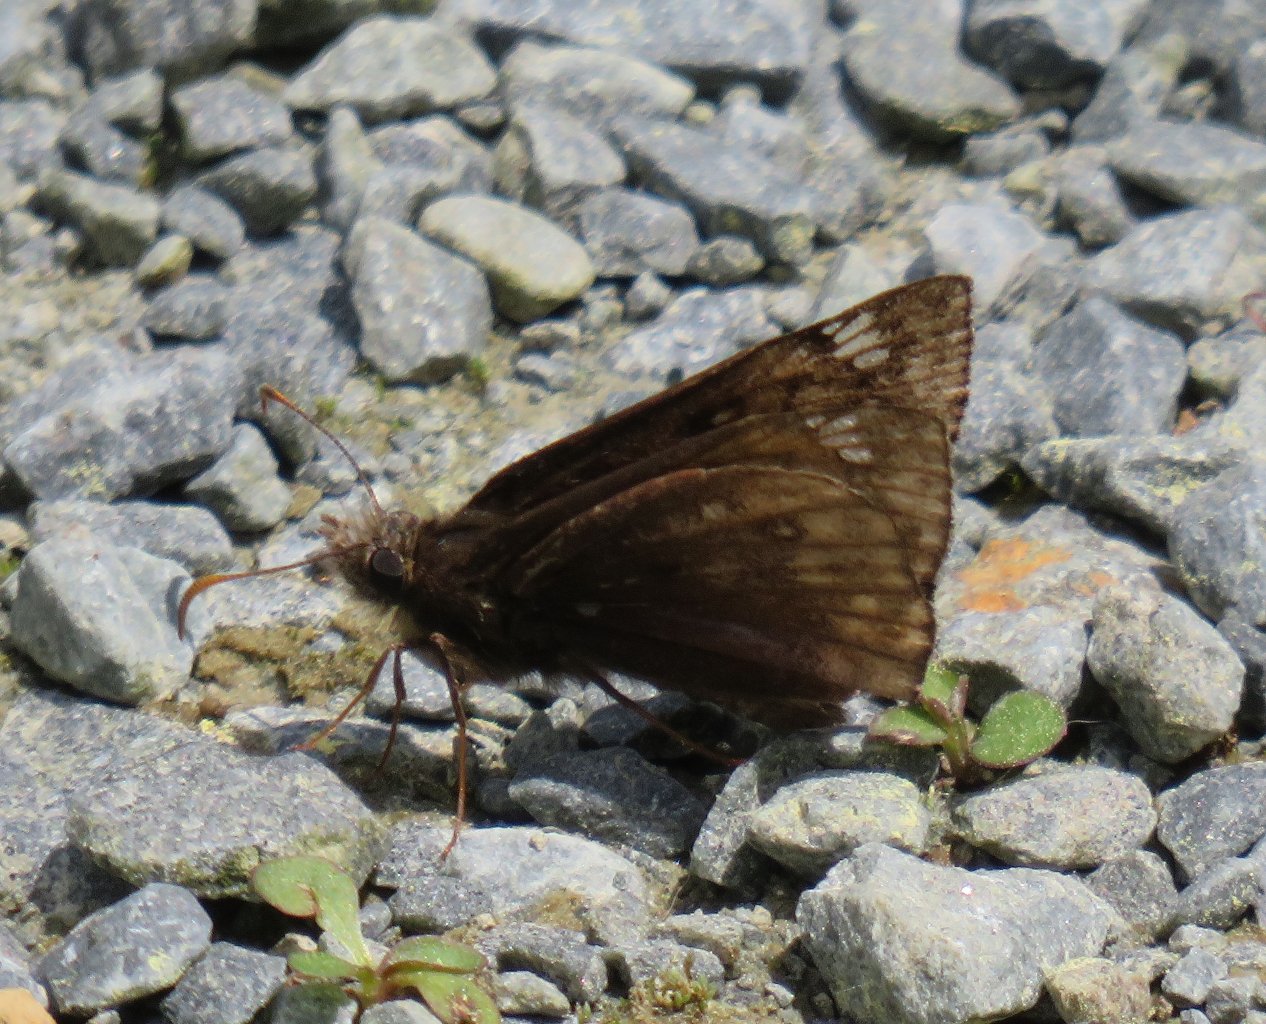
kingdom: Animalia
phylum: Arthropoda
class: Insecta
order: Lepidoptera
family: Hesperiidae
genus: Gesta
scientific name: Gesta
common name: Juvenal's Duskywing
